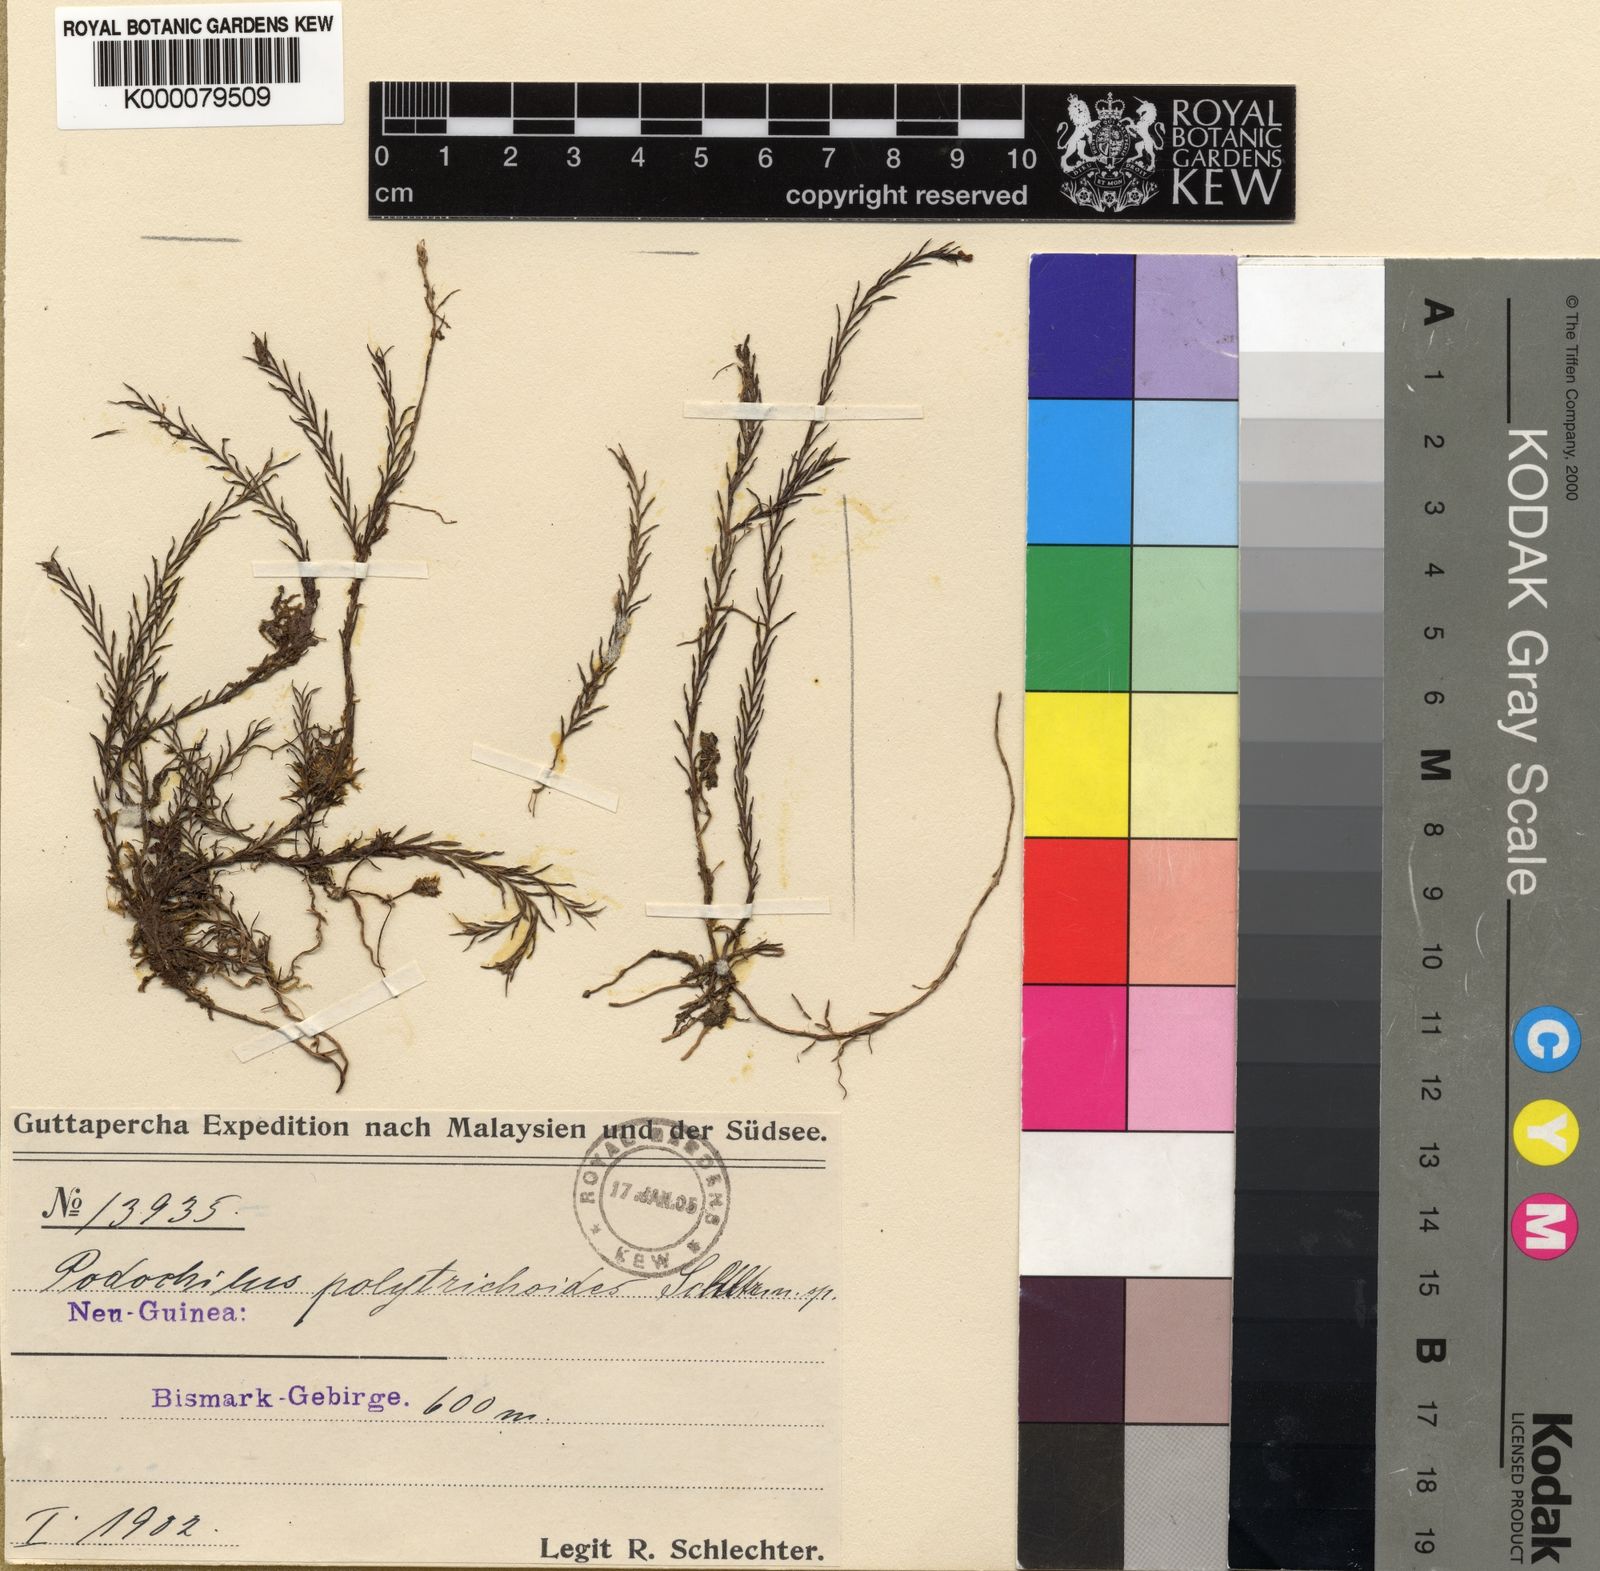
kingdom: Plantae
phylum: Tracheophyta
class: Liliopsida
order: Asparagales
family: Orchidaceae
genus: Podochilus
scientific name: Podochilus polytrichoides
